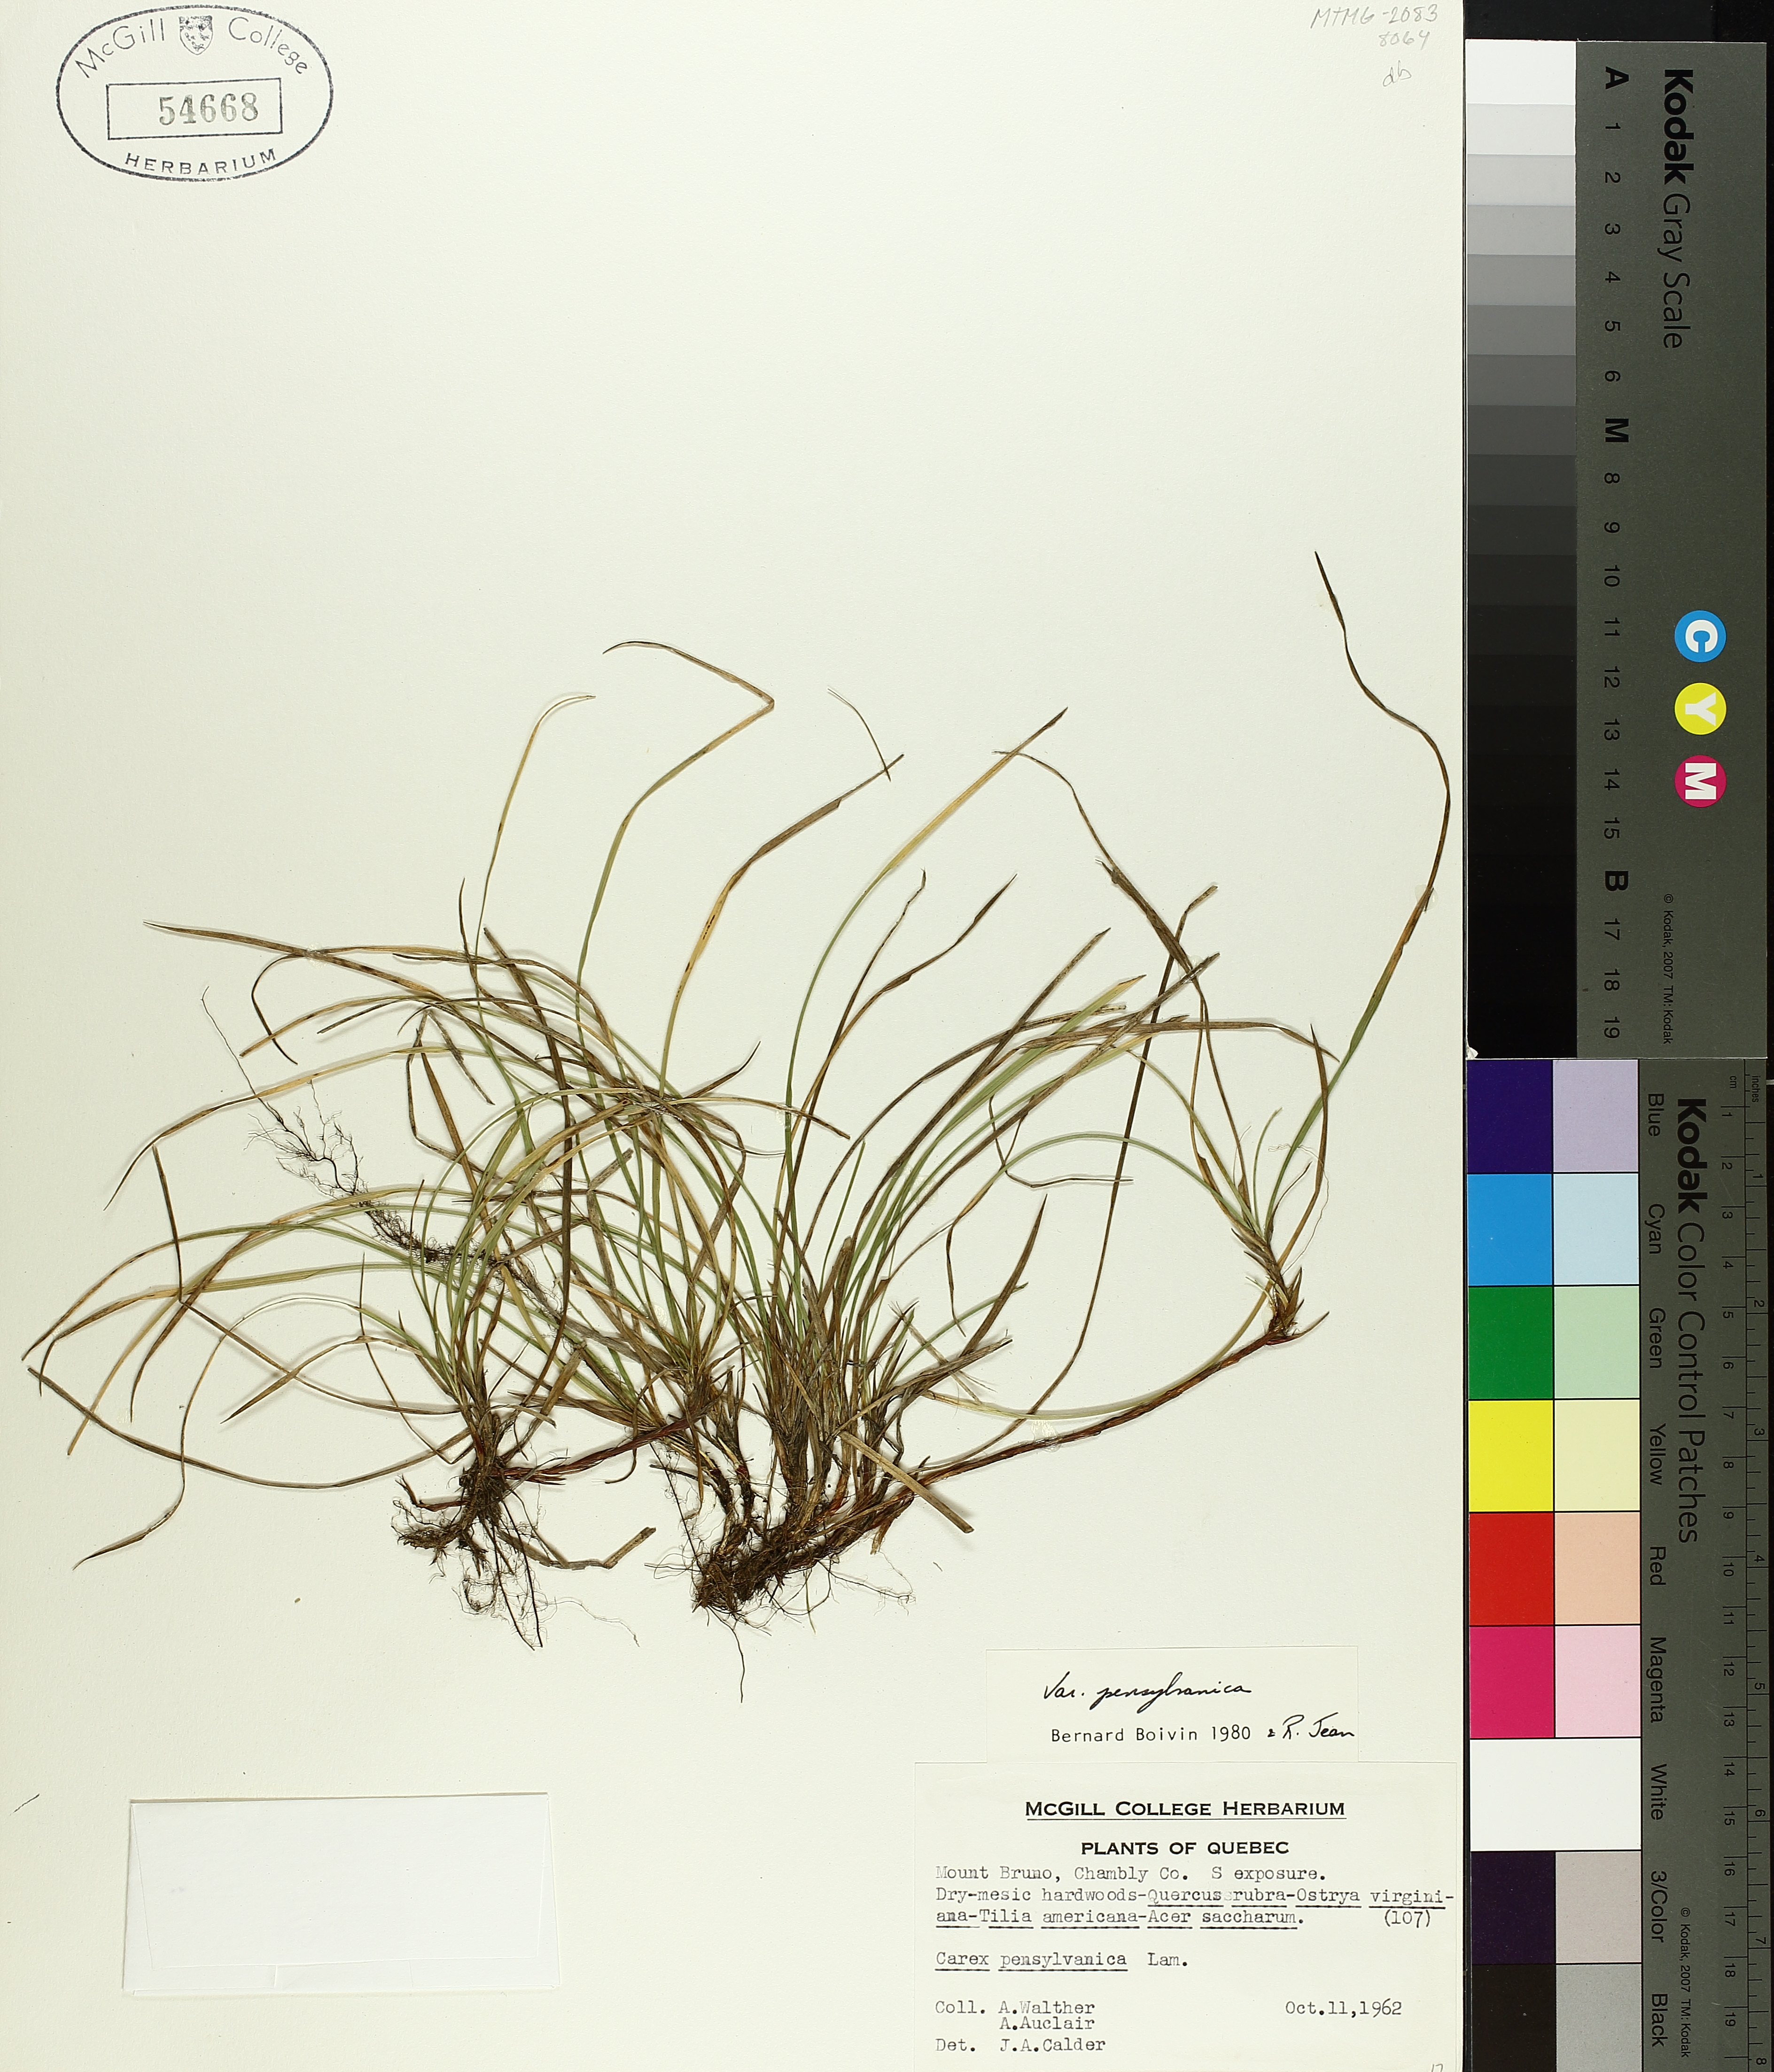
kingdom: Plantae
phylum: Tracheophyta
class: Liliopsida
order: Poales
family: Cyperaceae
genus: Carex
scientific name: Carex pensylvanica
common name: Common oak sedge
